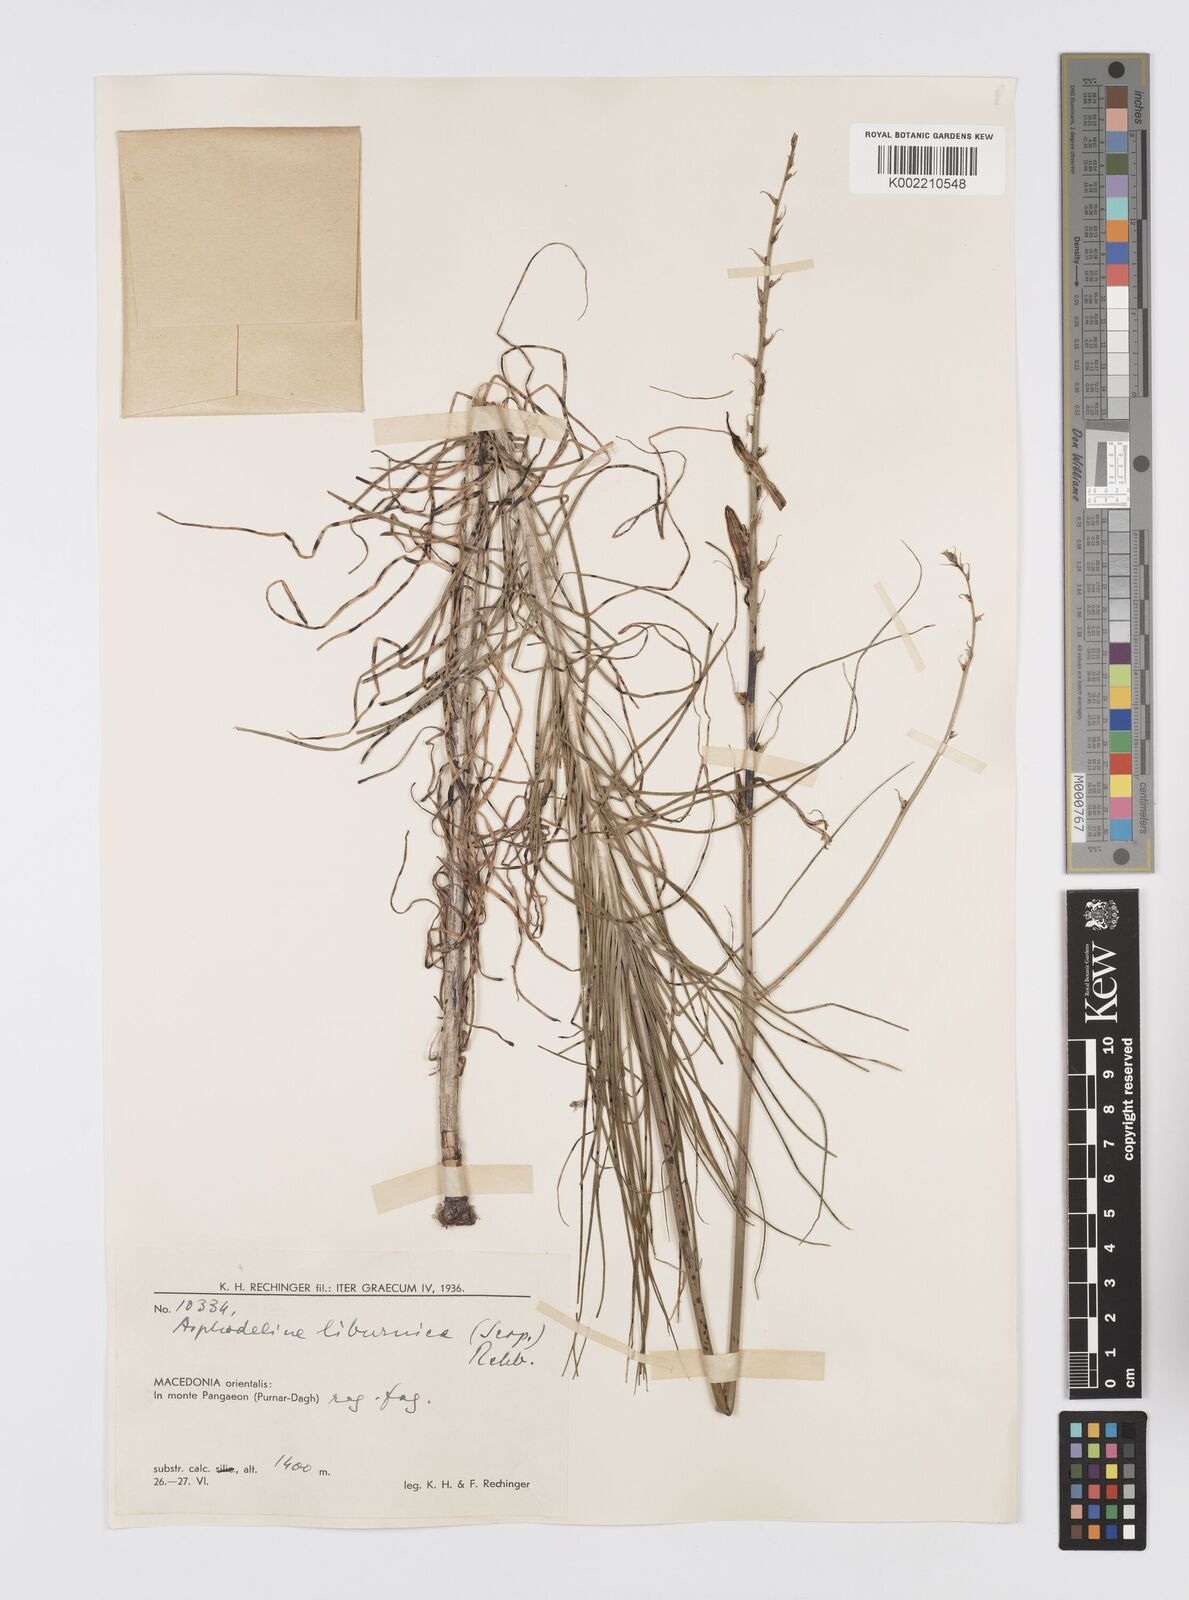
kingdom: Plantae
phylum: Tracheophyta
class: Liliopsida
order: Asparagales
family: Asphodelaceae
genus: Asphodeline
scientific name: Asphodeline liburnica
